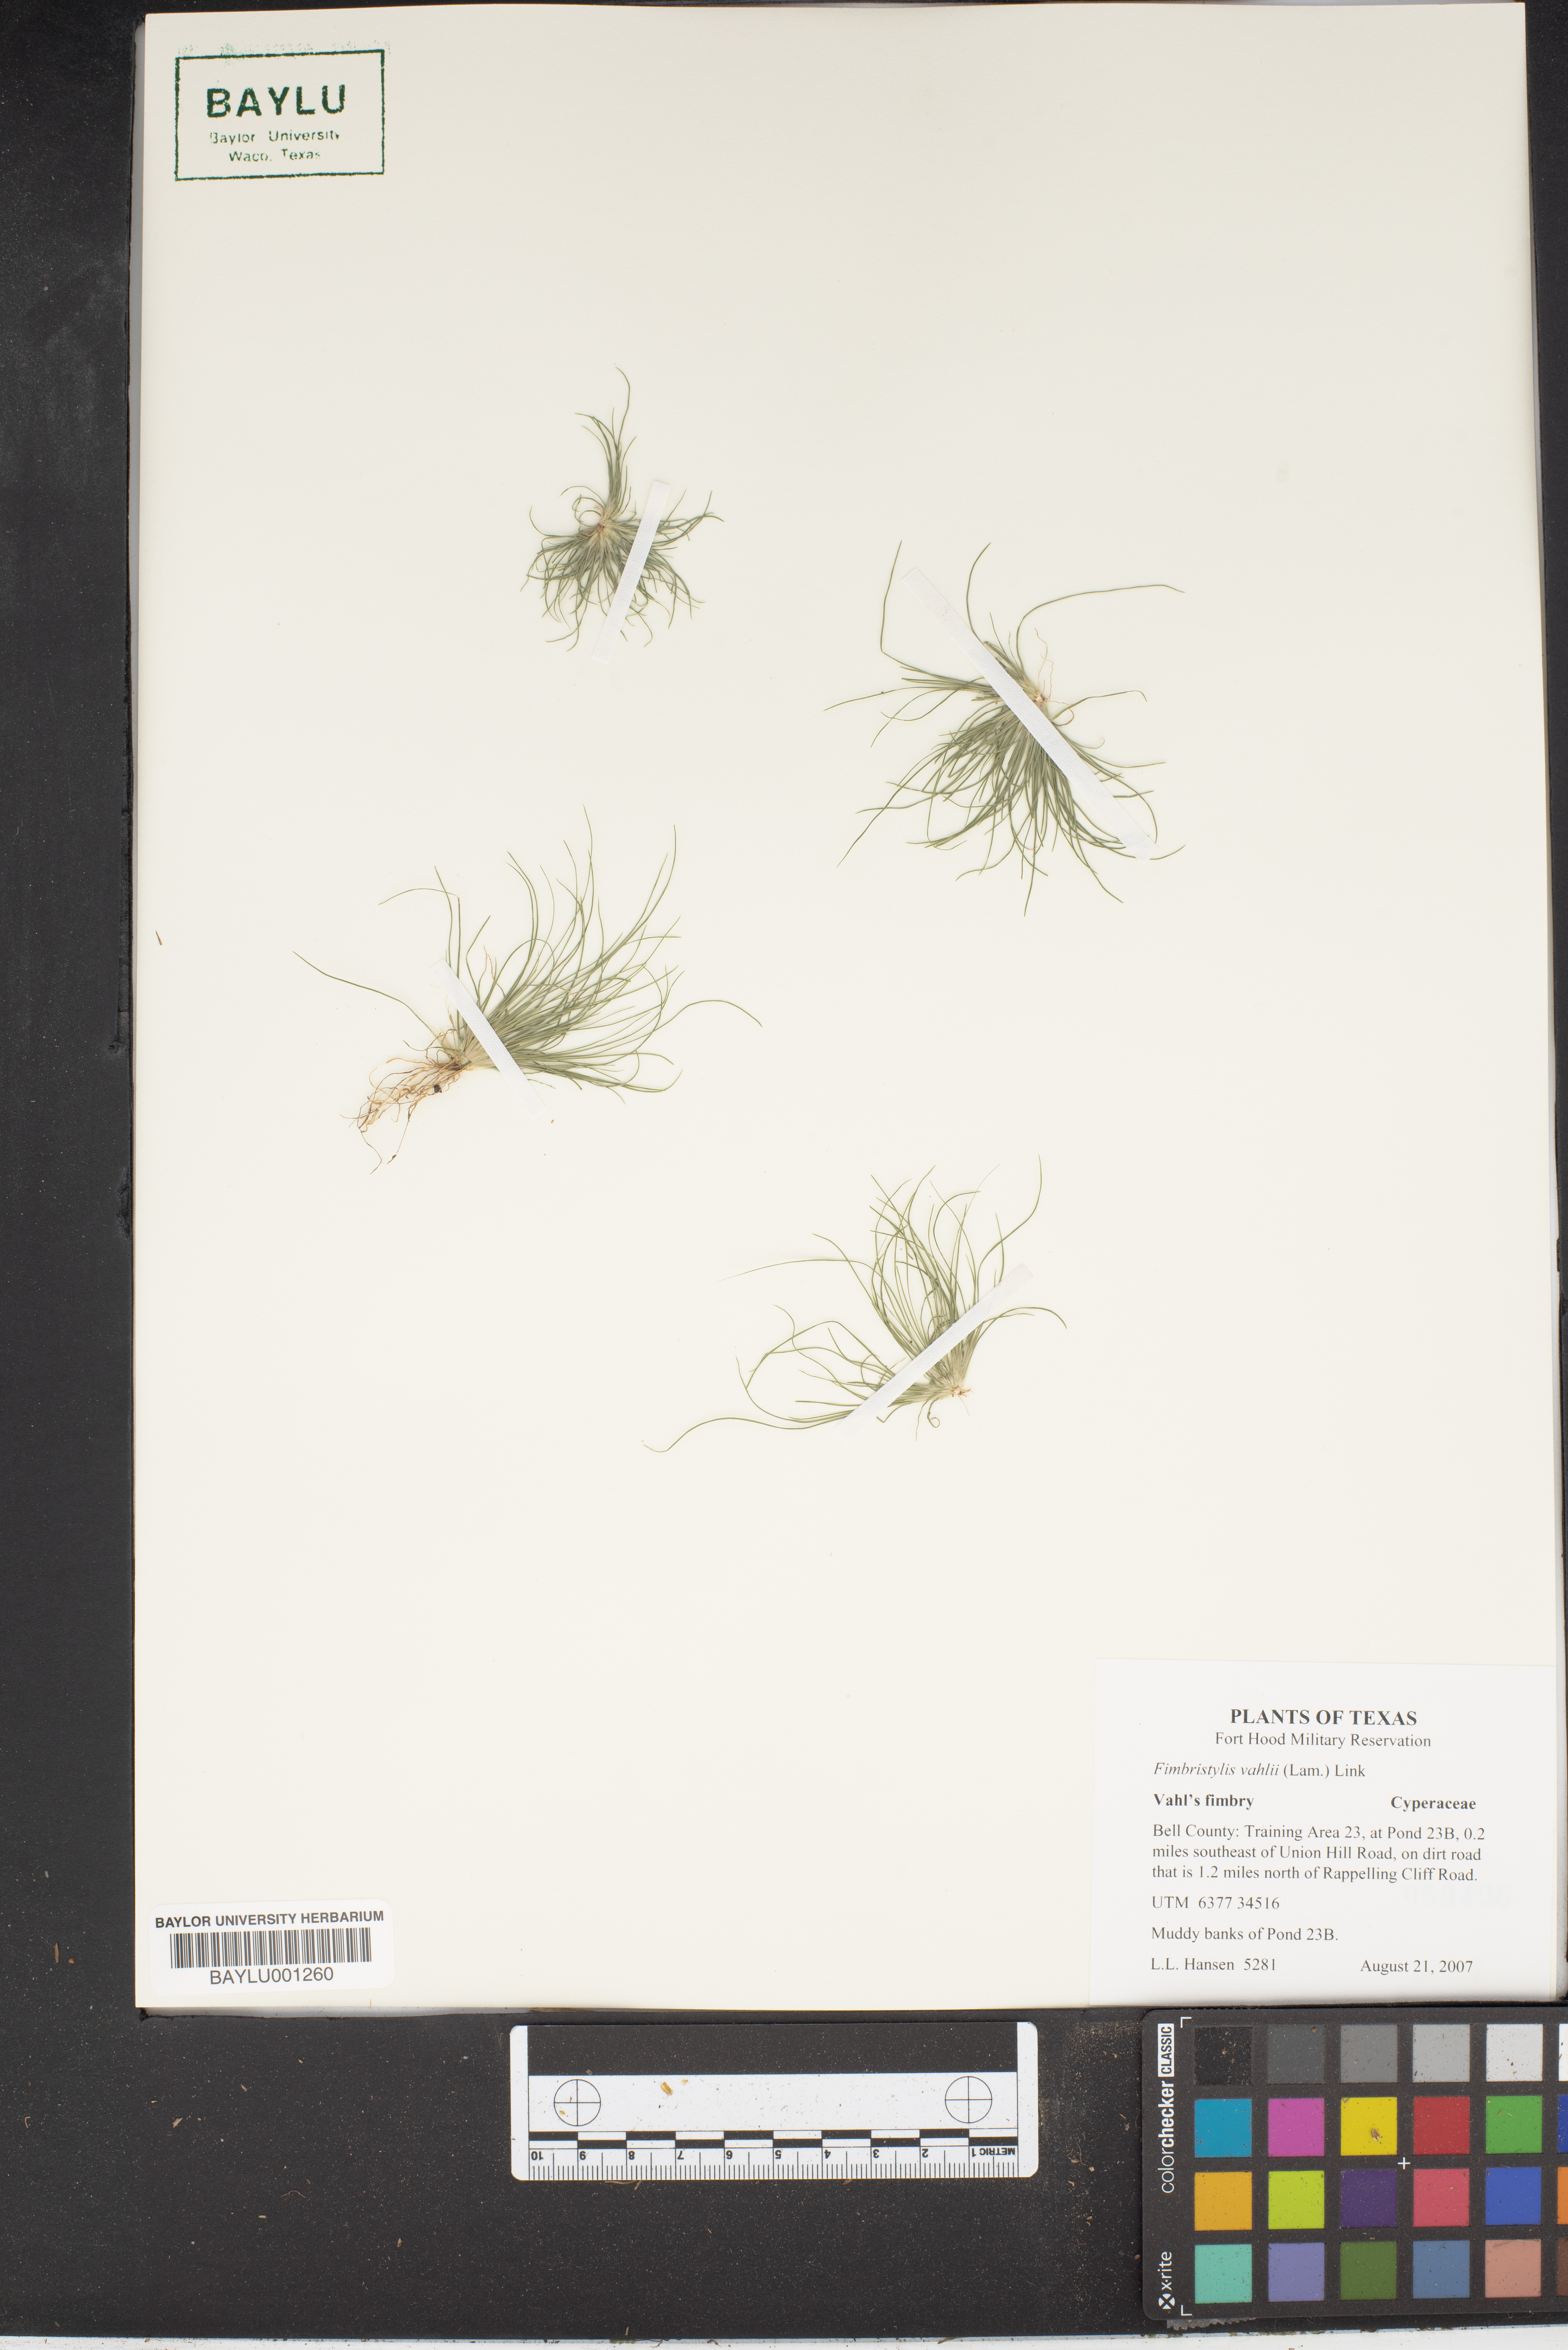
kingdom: Plantae
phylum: Tracheophyta
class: Liliopsida
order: Poales
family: Cyperaceae
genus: Fimbristylis
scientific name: Fimbristylis vahlii
